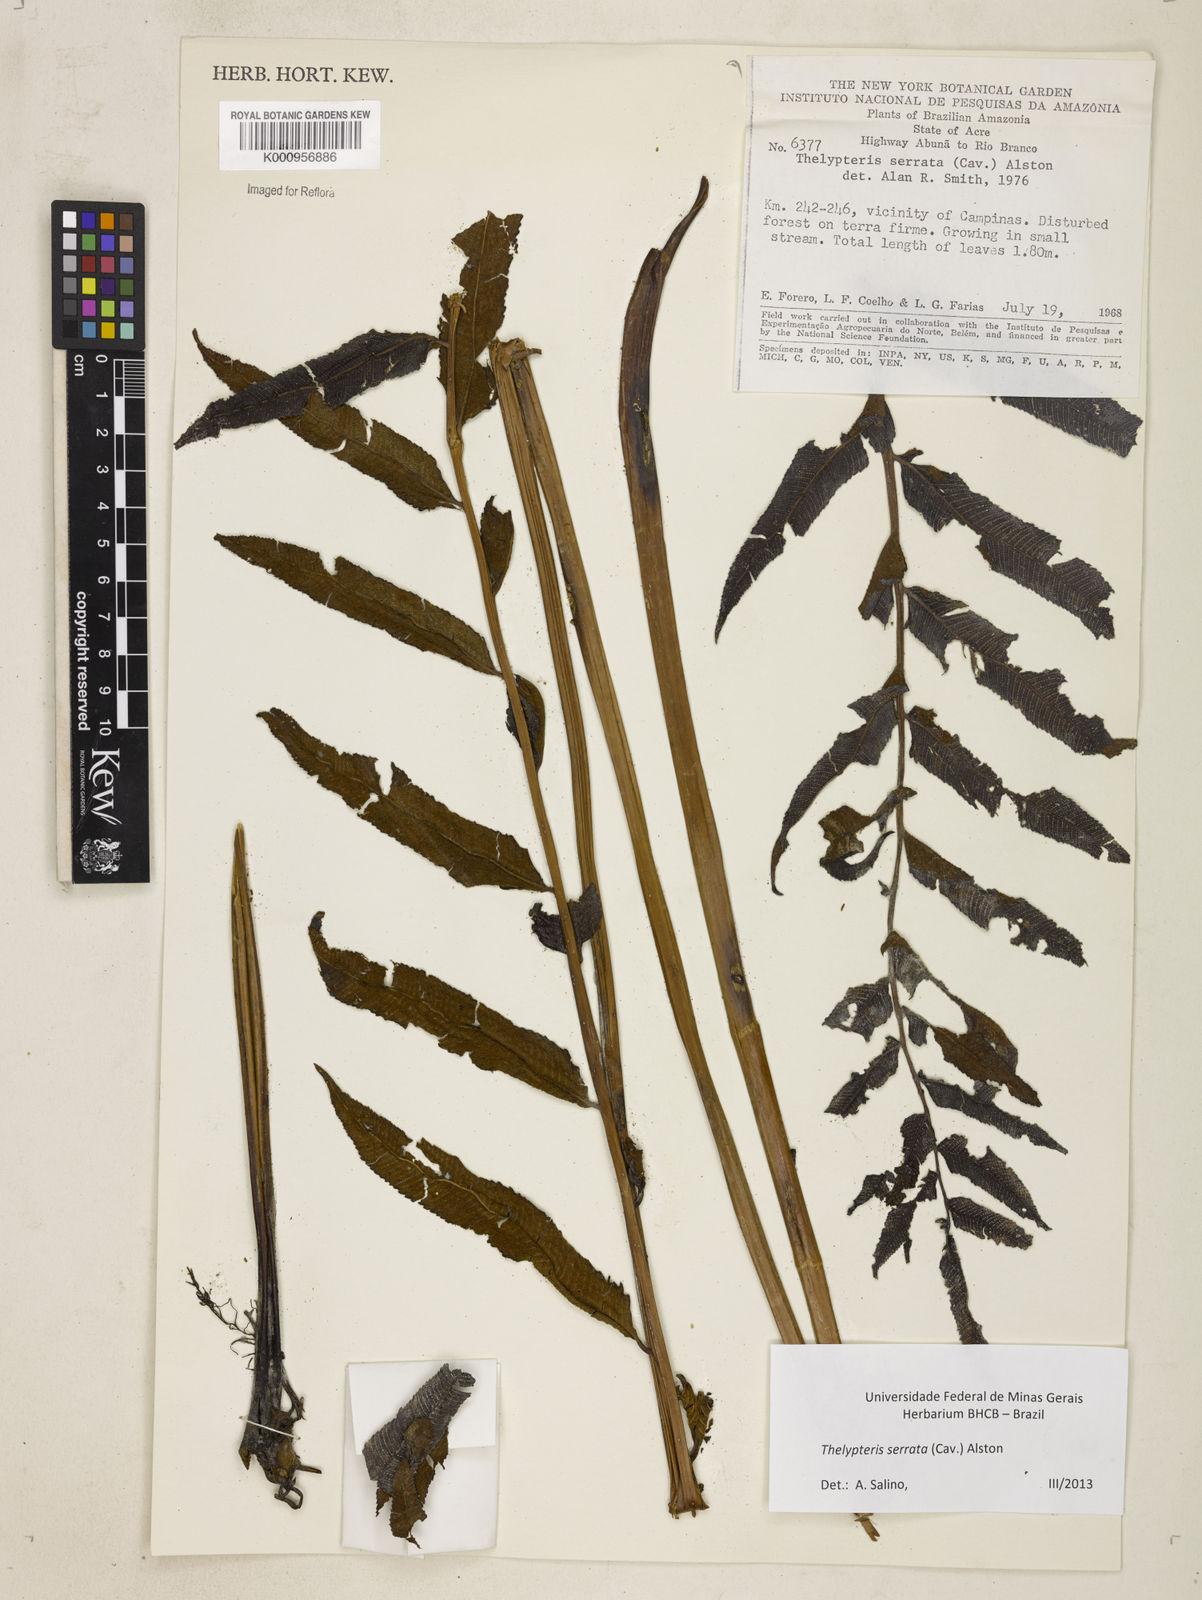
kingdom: Plantae
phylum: Tracheophyta
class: Polypodiopsida
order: Polypodiales
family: Thelypteridaceae
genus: Meniscium
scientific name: Meniscium serratum
